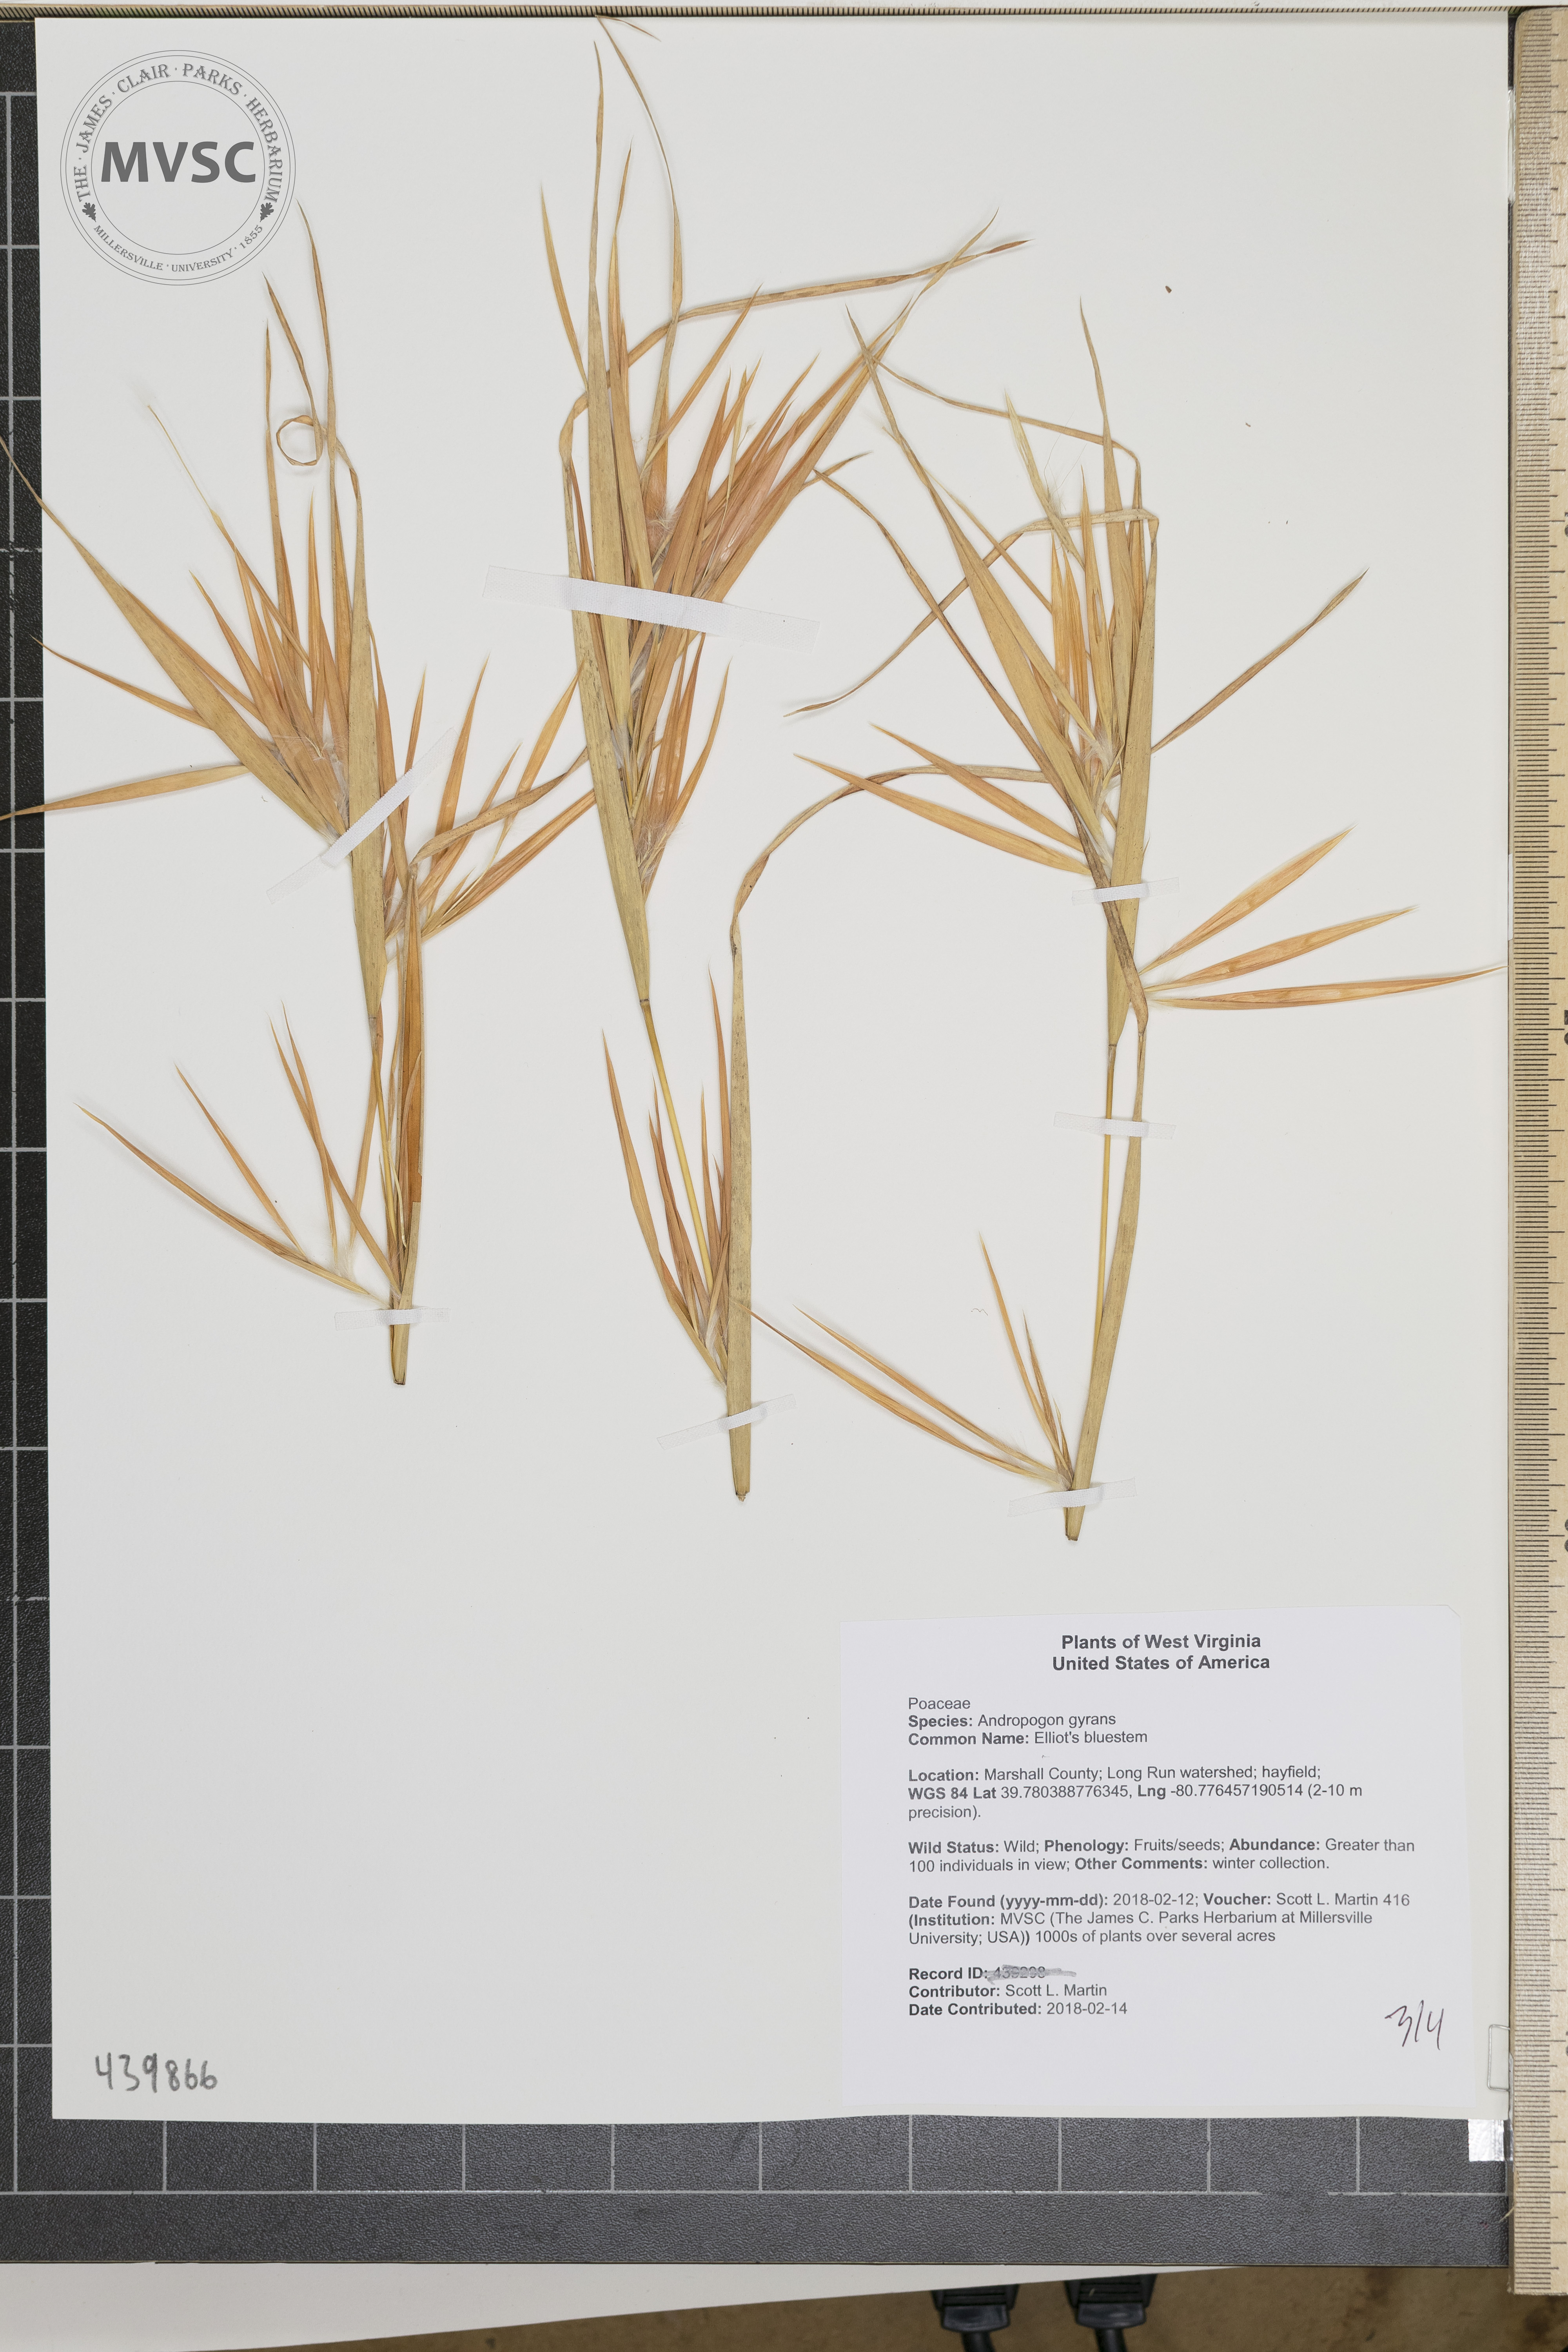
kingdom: Plantae
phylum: Tracheophyta
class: Liliopsida
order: Poales
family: Poaceae
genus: Andropogon
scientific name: Andropogon gyrans
